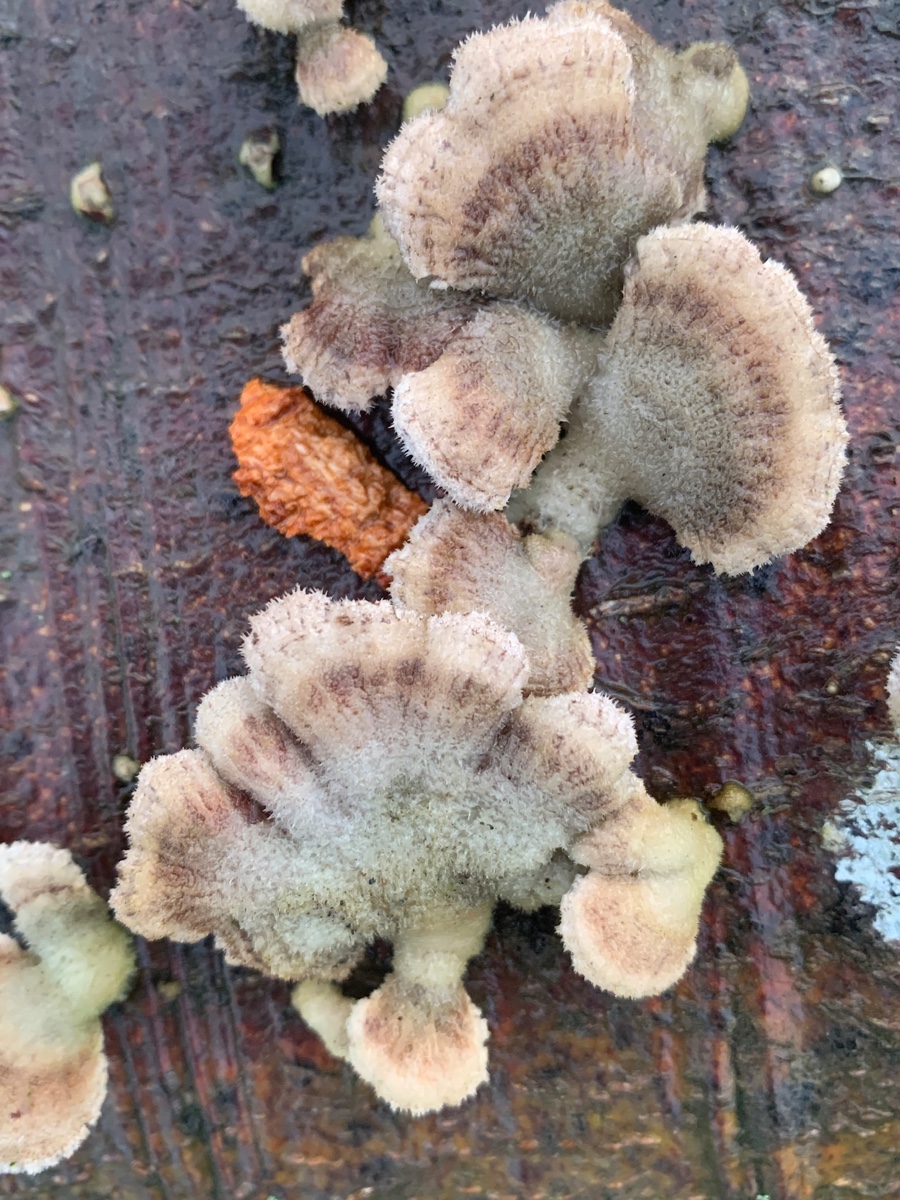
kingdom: Fungi
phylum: Basidiomycota
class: Agaricomycetes
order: Agaricales
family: Schizophyllaceae
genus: Schizophyllum
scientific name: Schizophyllum commune
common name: kløvblad
